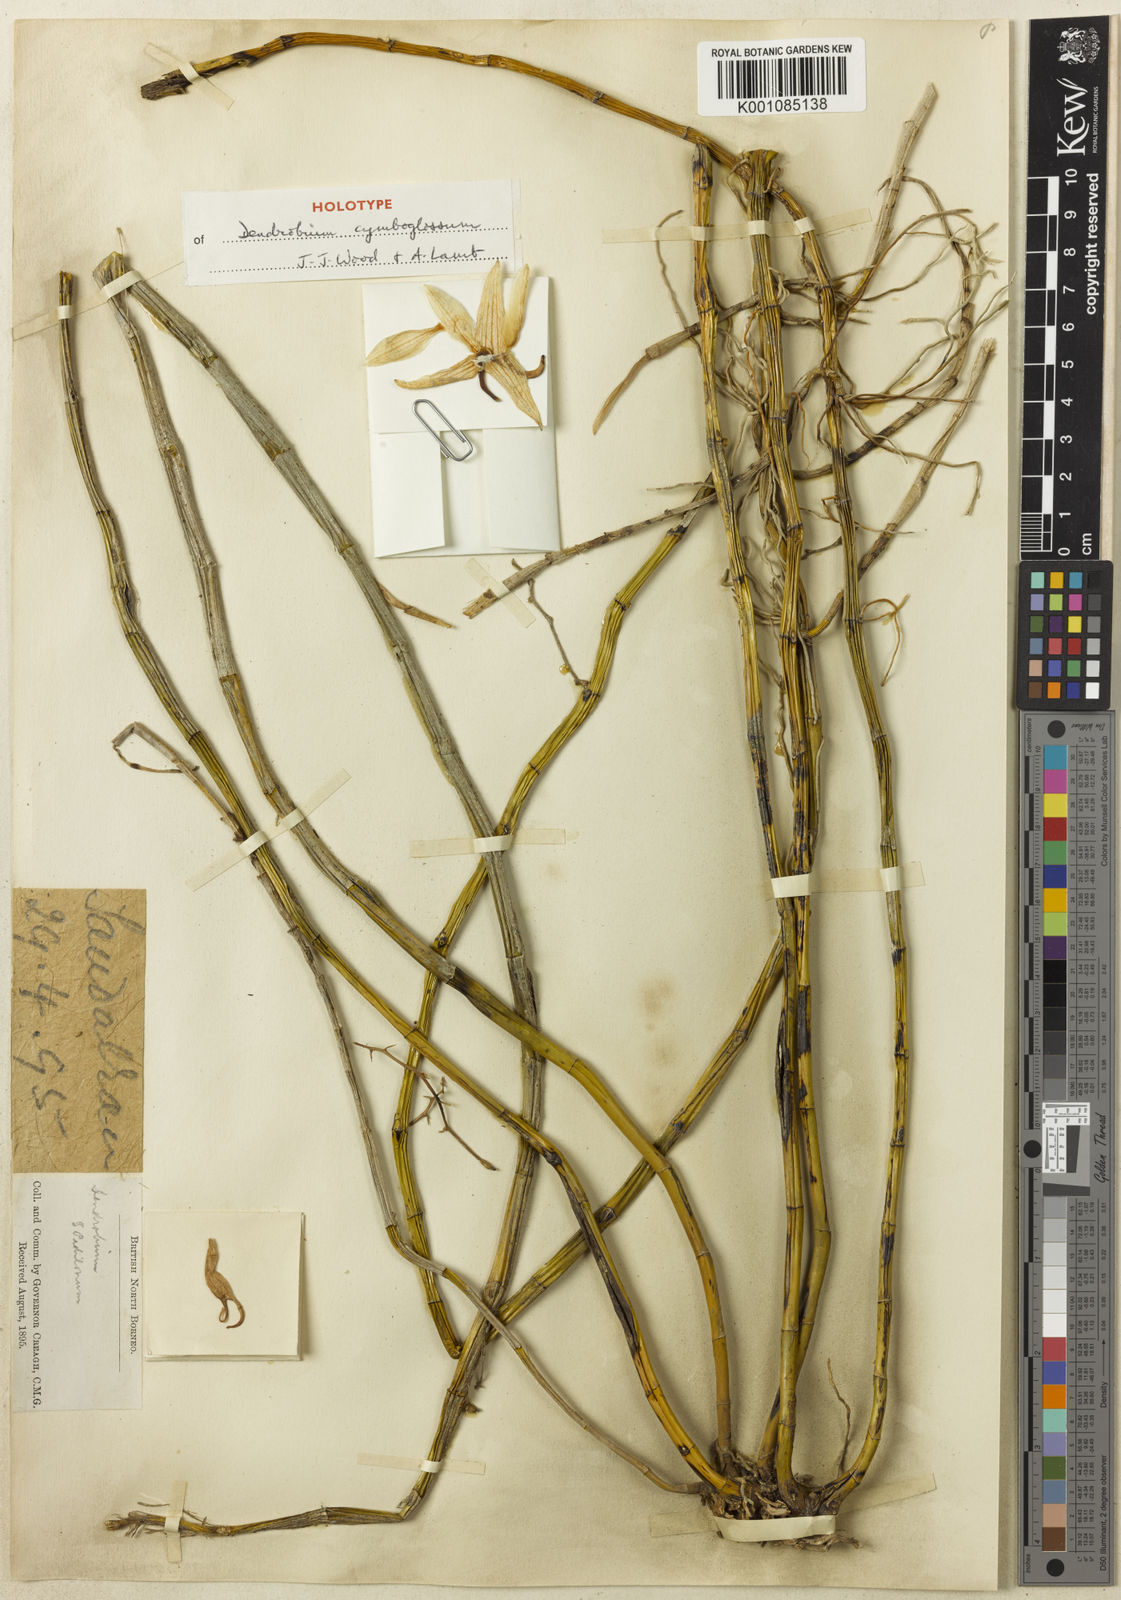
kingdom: Plantae
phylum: Tracheophyta
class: Liliopsida
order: Asparagales
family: Orchidaceae
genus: Dendrobium
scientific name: Dendrobium cymboglossum
